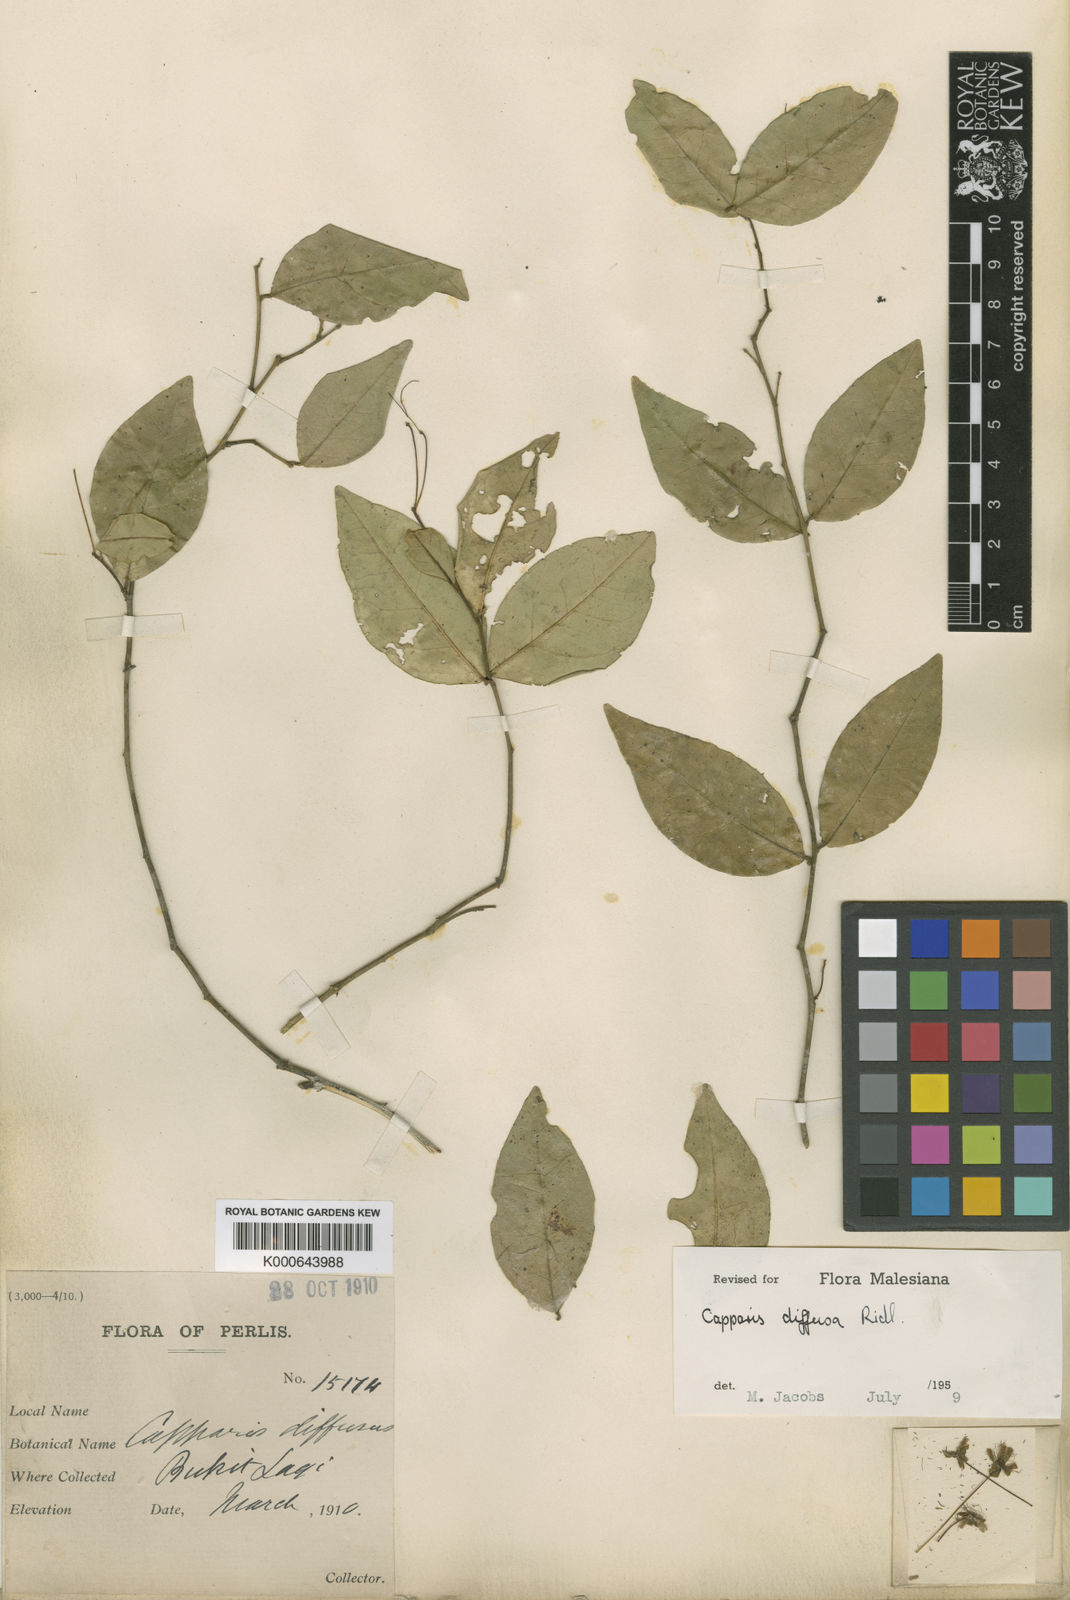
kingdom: Plantae
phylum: Tracheophyta
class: Magnoliopsida
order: Brassicales
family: Capparaceae
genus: Capparis
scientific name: Capparis diffusa
